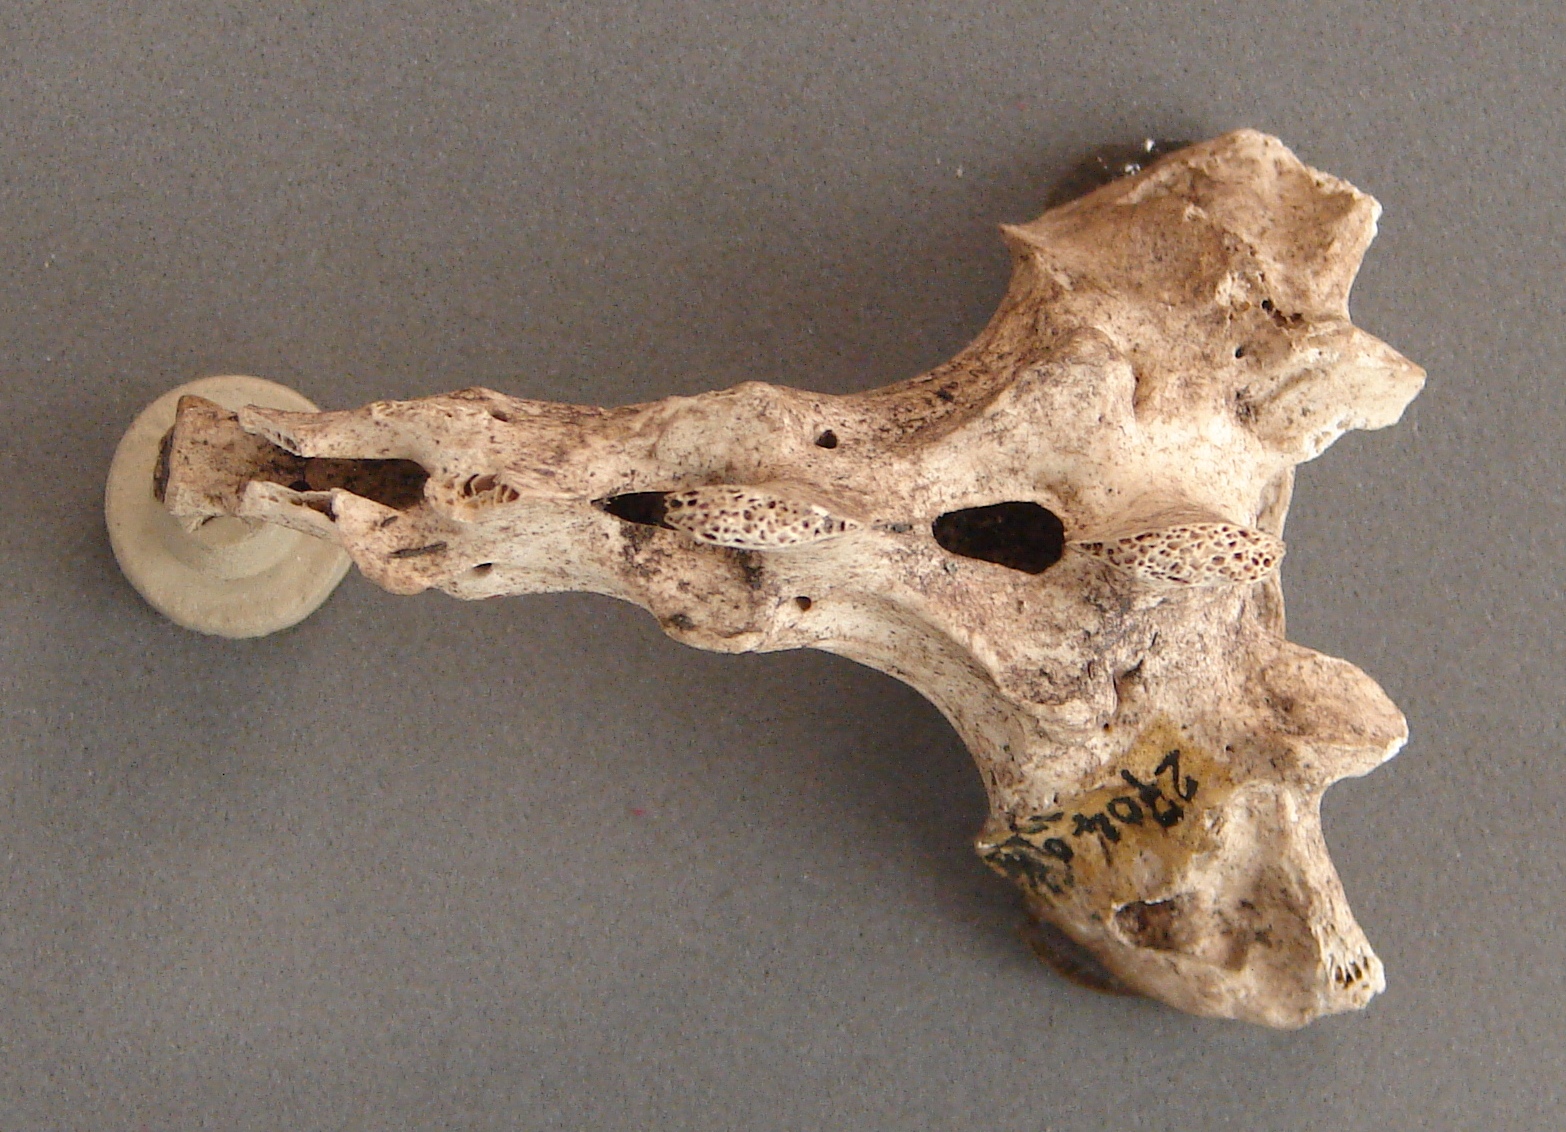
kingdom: Animalia
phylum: Chordata
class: Mammalia
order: Lagomorpha
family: Leporidae
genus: Lepus
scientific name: Lepus
